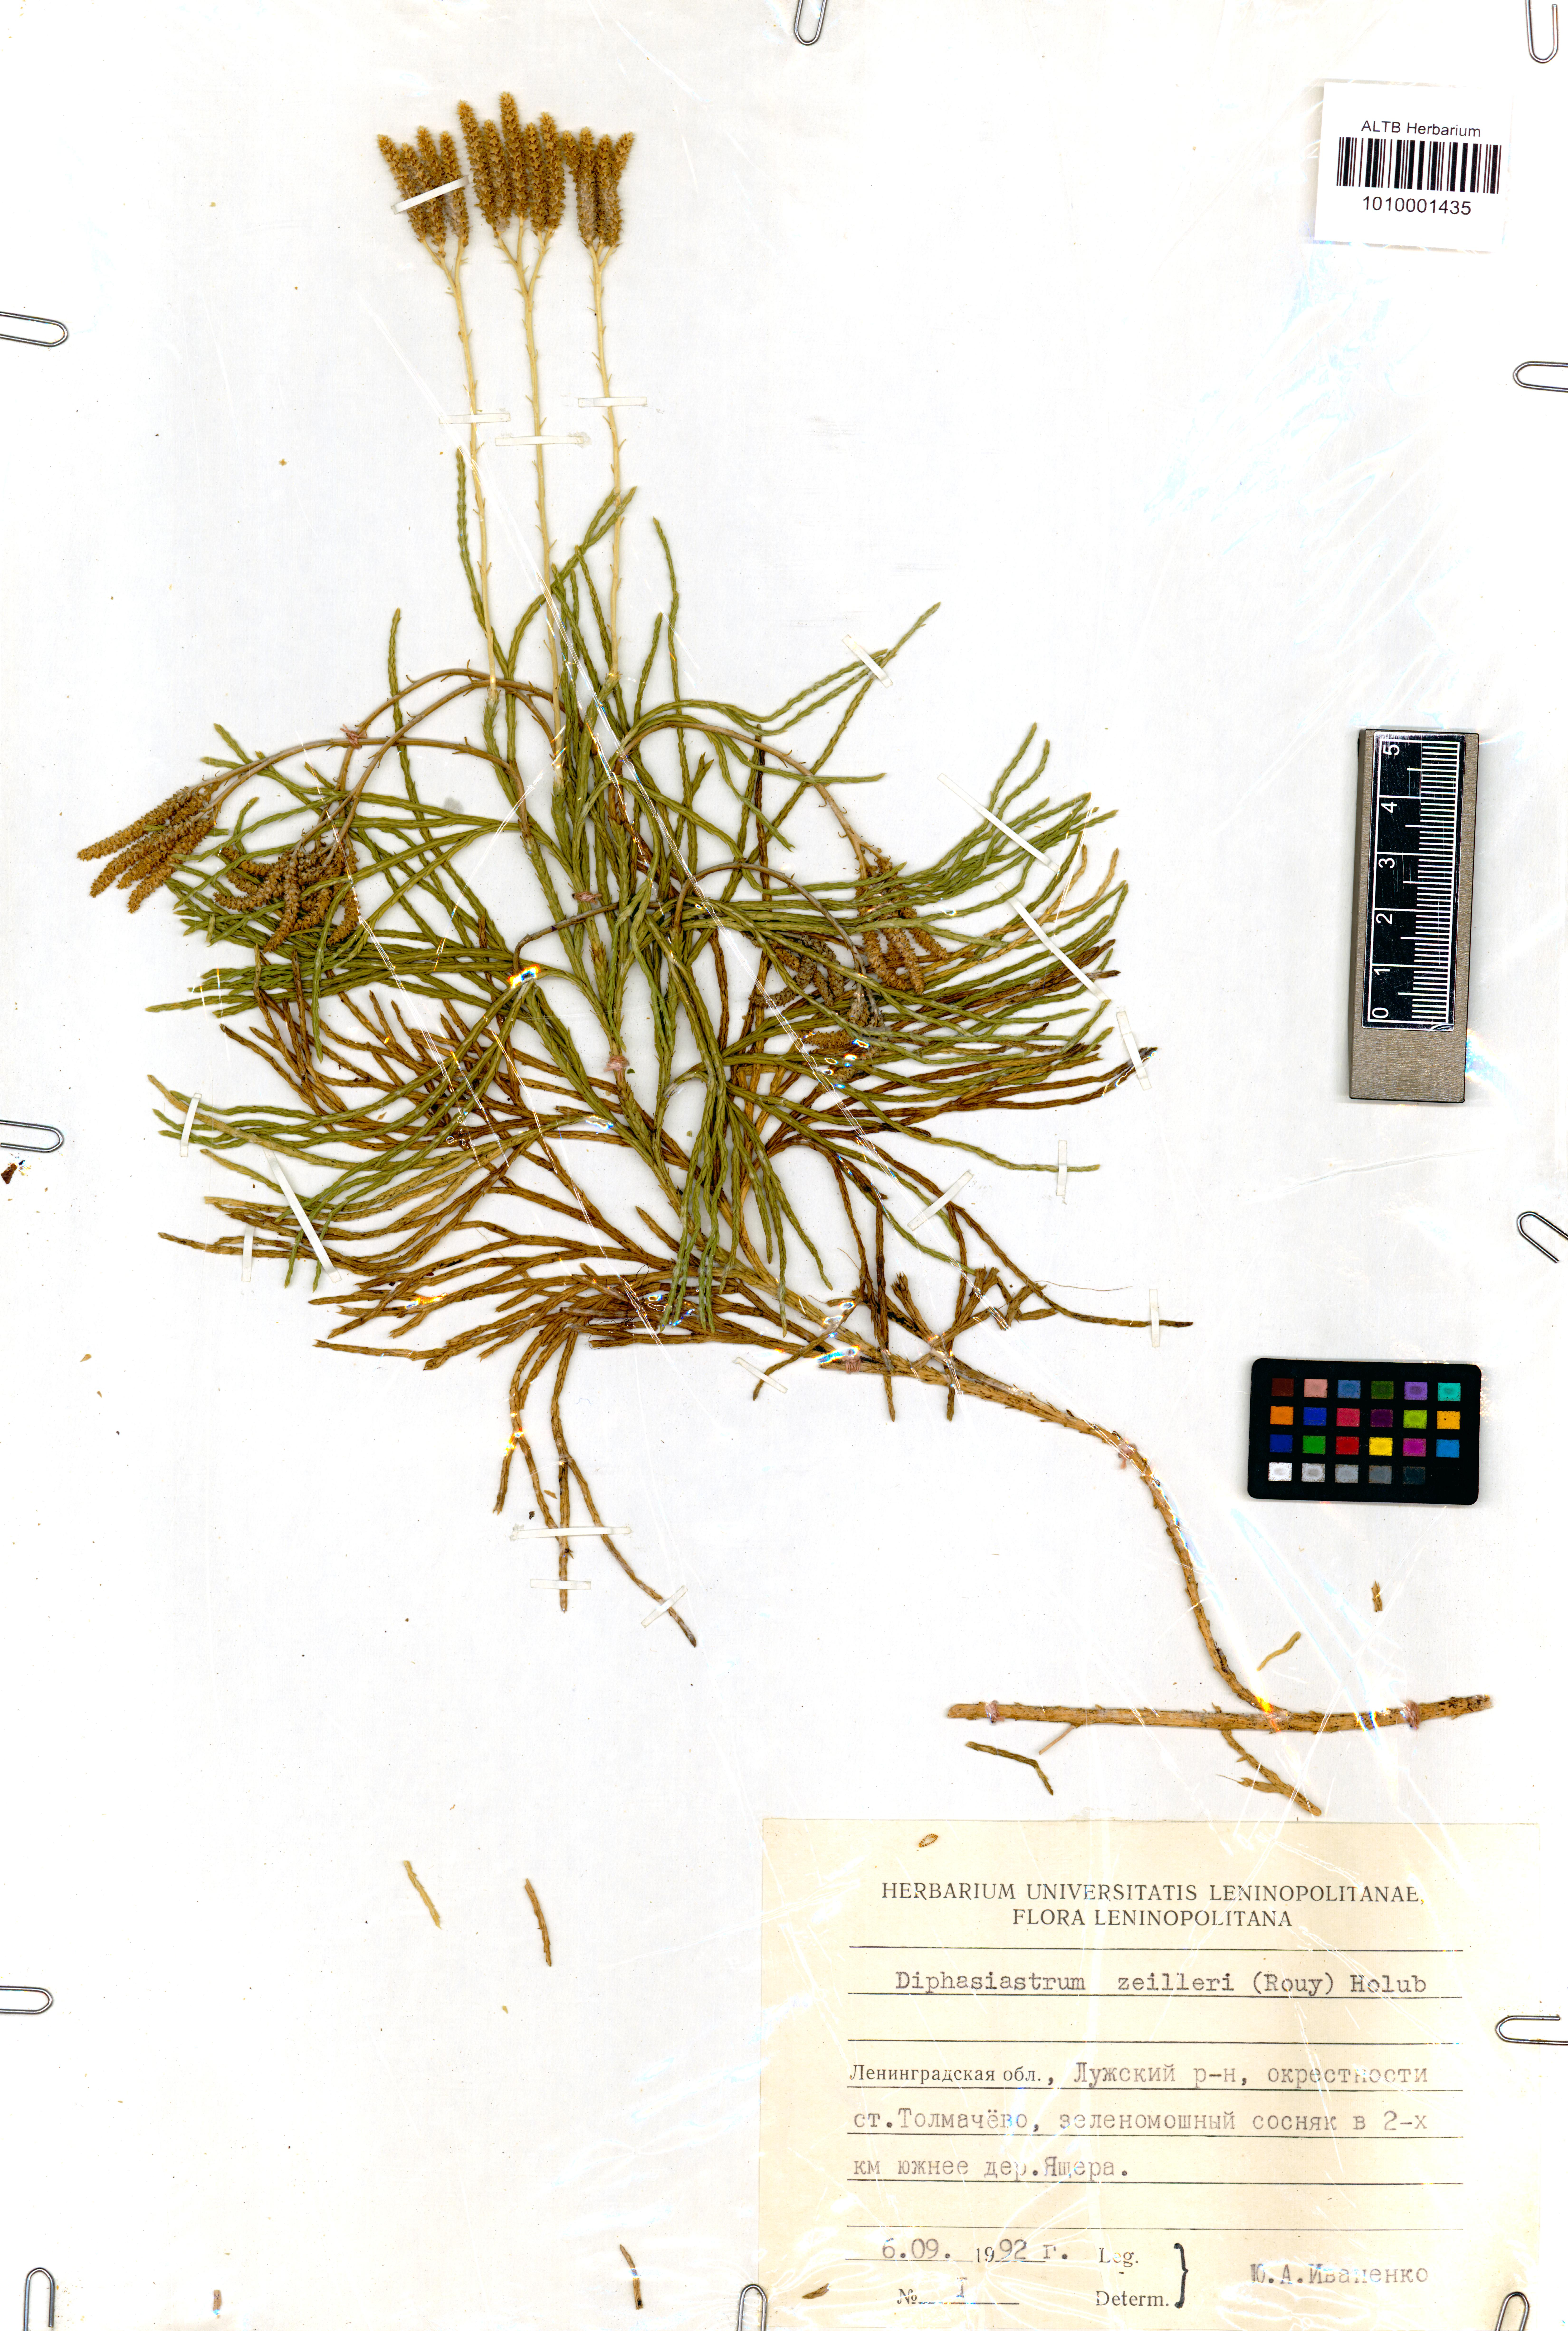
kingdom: Plantae
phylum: Tracheophyta
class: Lycopodiopsida
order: Lycopodiales
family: Lycopodiaceae
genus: Diphasiastrum
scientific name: Diphasiastrum zeilleri
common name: Zeiller's clubmoss
